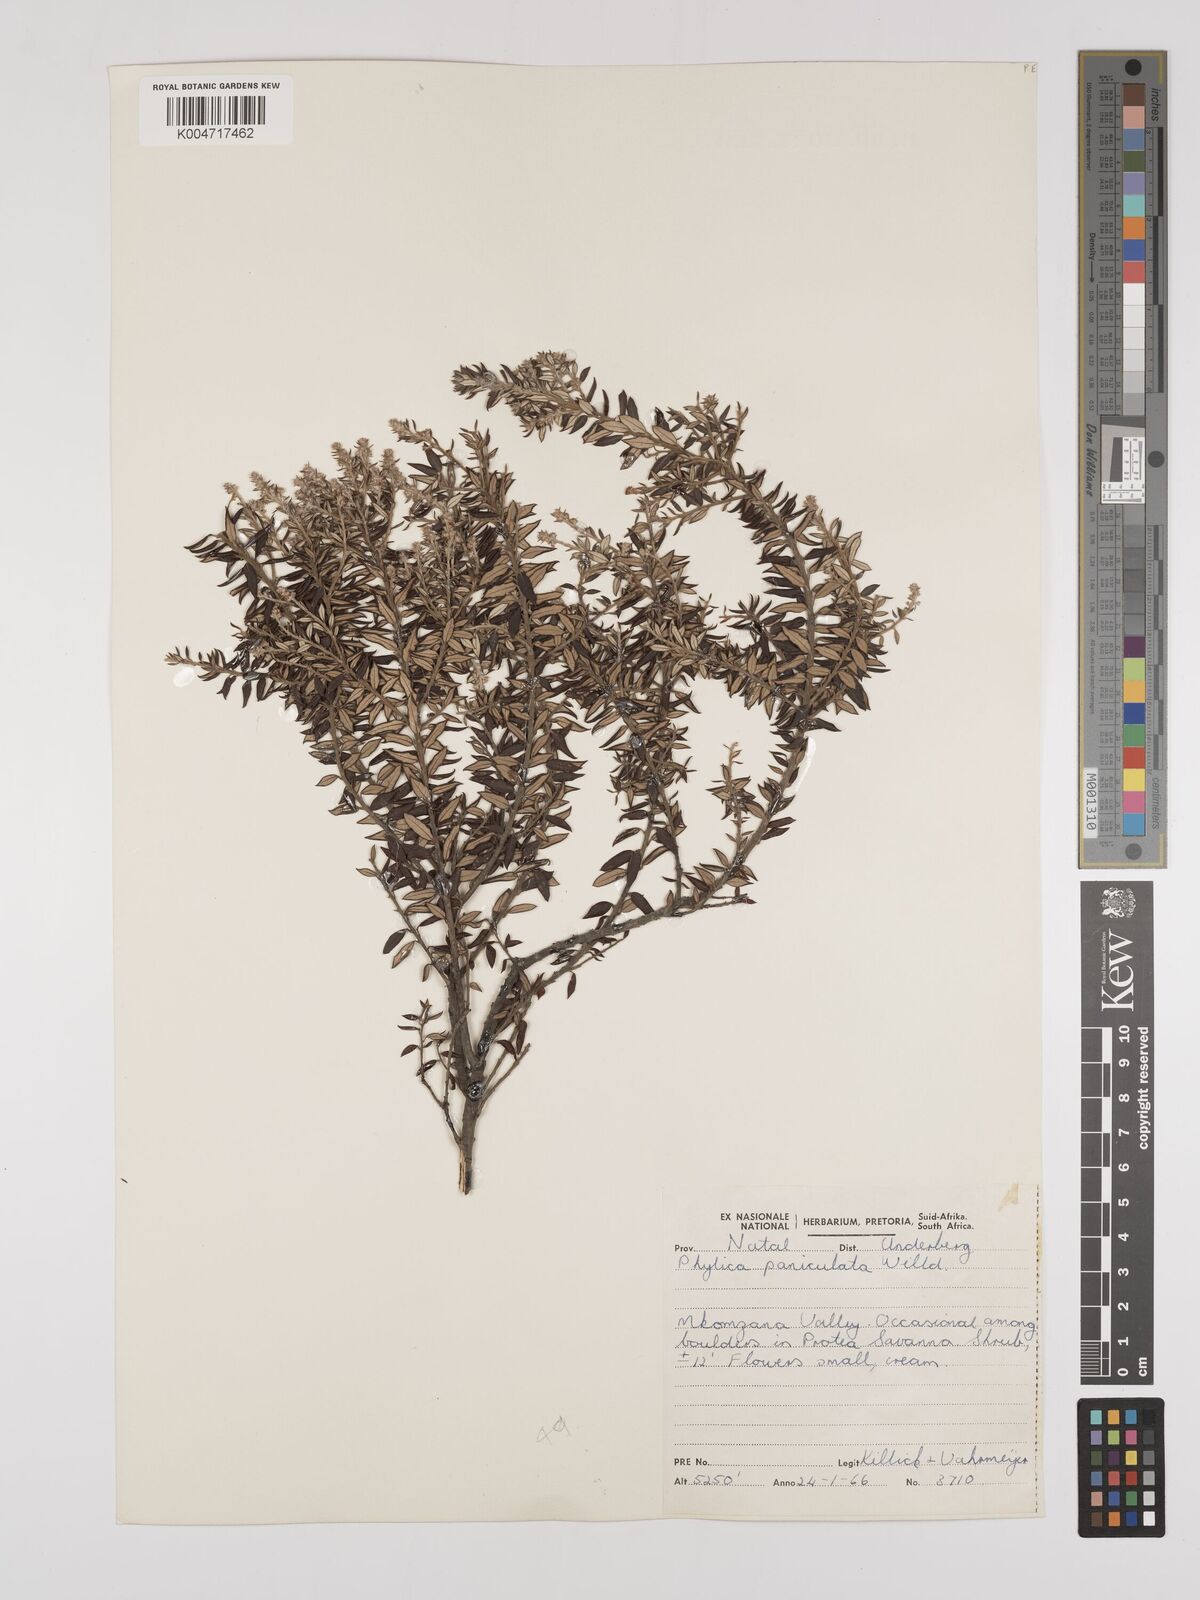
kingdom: Plantae
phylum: Tracheophyta
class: Magnoliopsida
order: Rosales
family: Rhamnaceae
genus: Phylica
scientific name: Phylica paniculata
